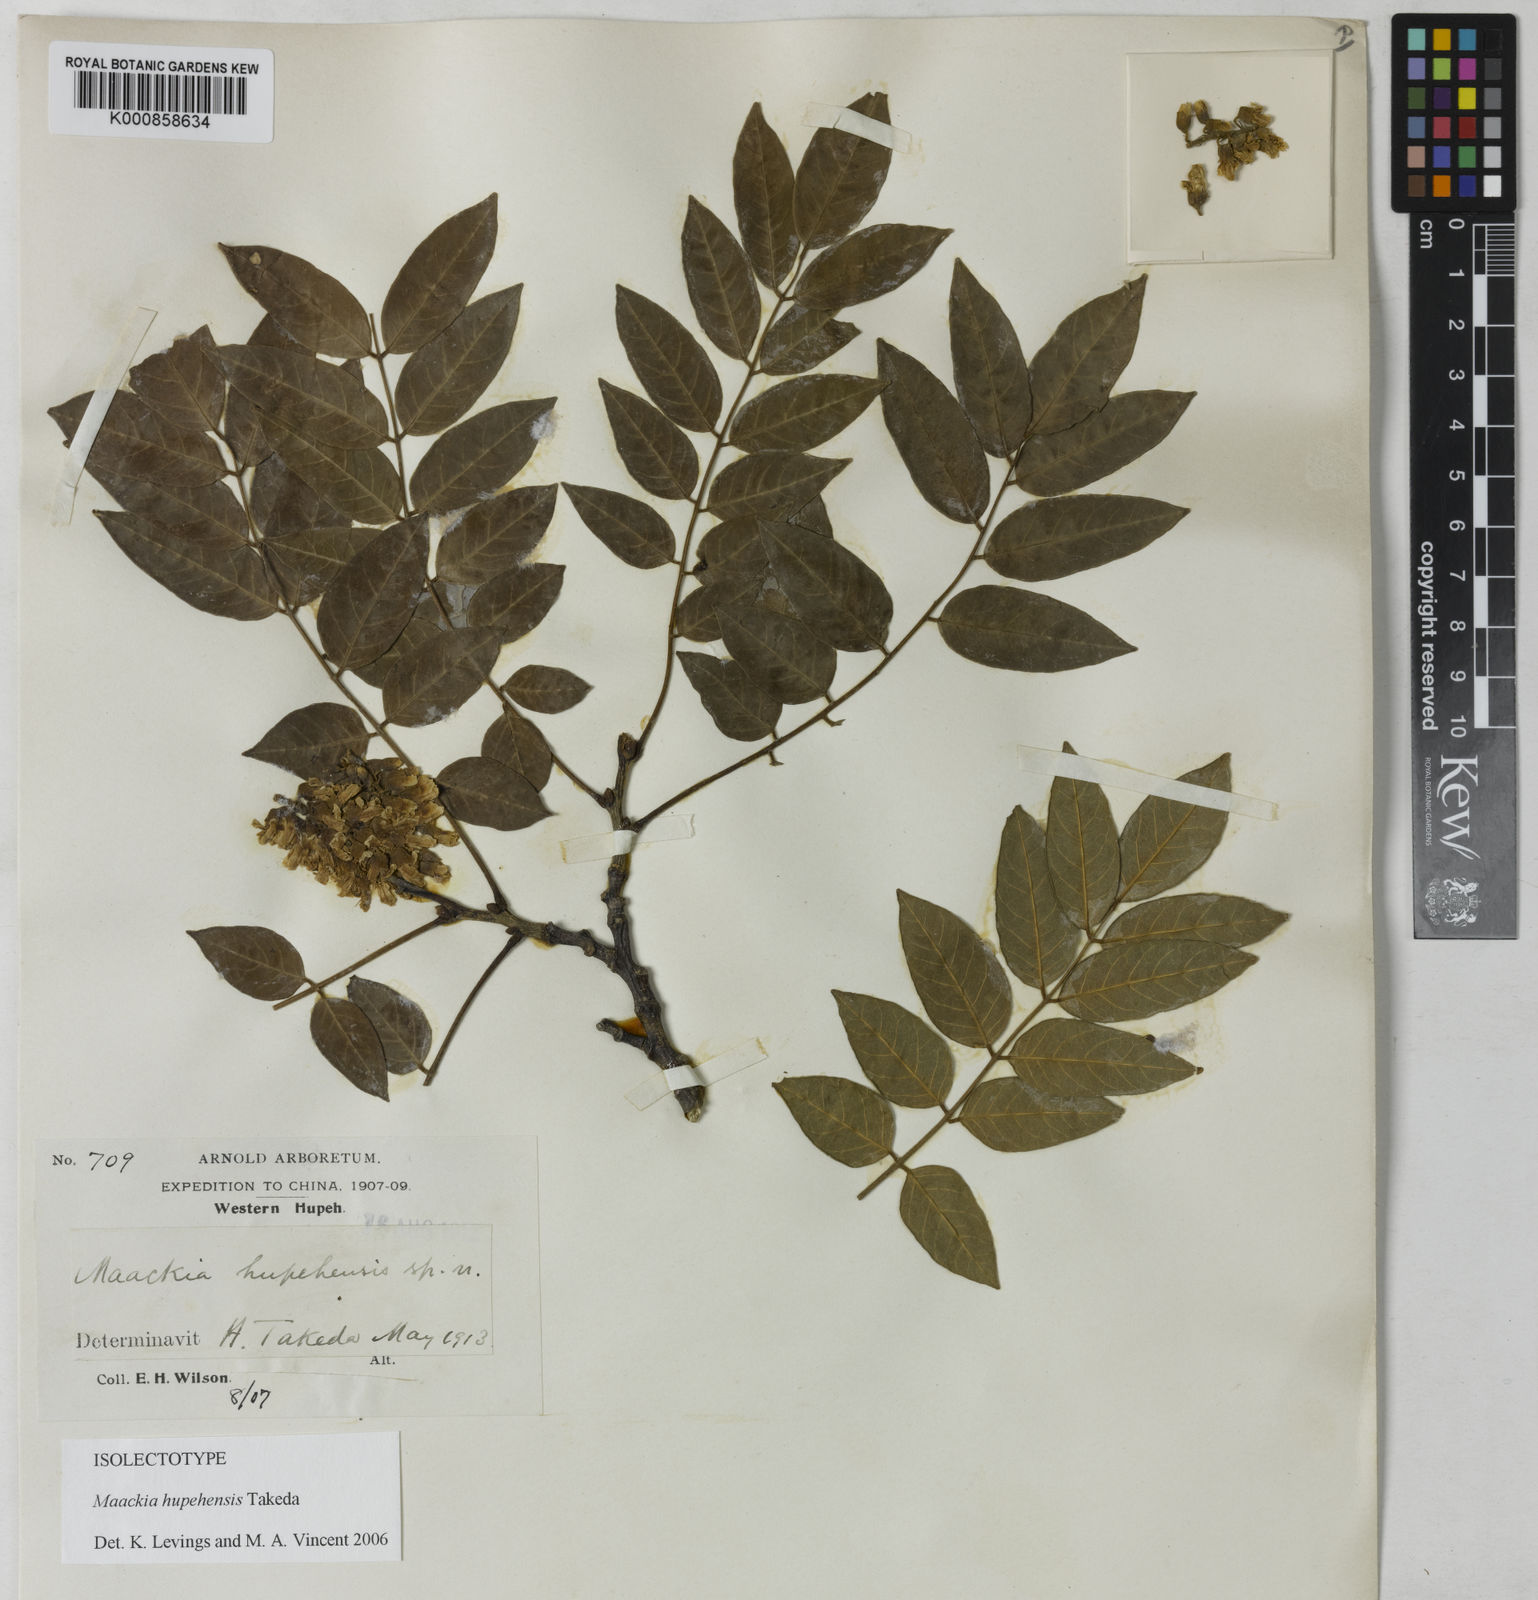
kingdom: Plantae
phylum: Tracheophyta
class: Magnoliopsida
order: Fabales
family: Fabaceae
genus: Maackia
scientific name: Maackia hupehensis
